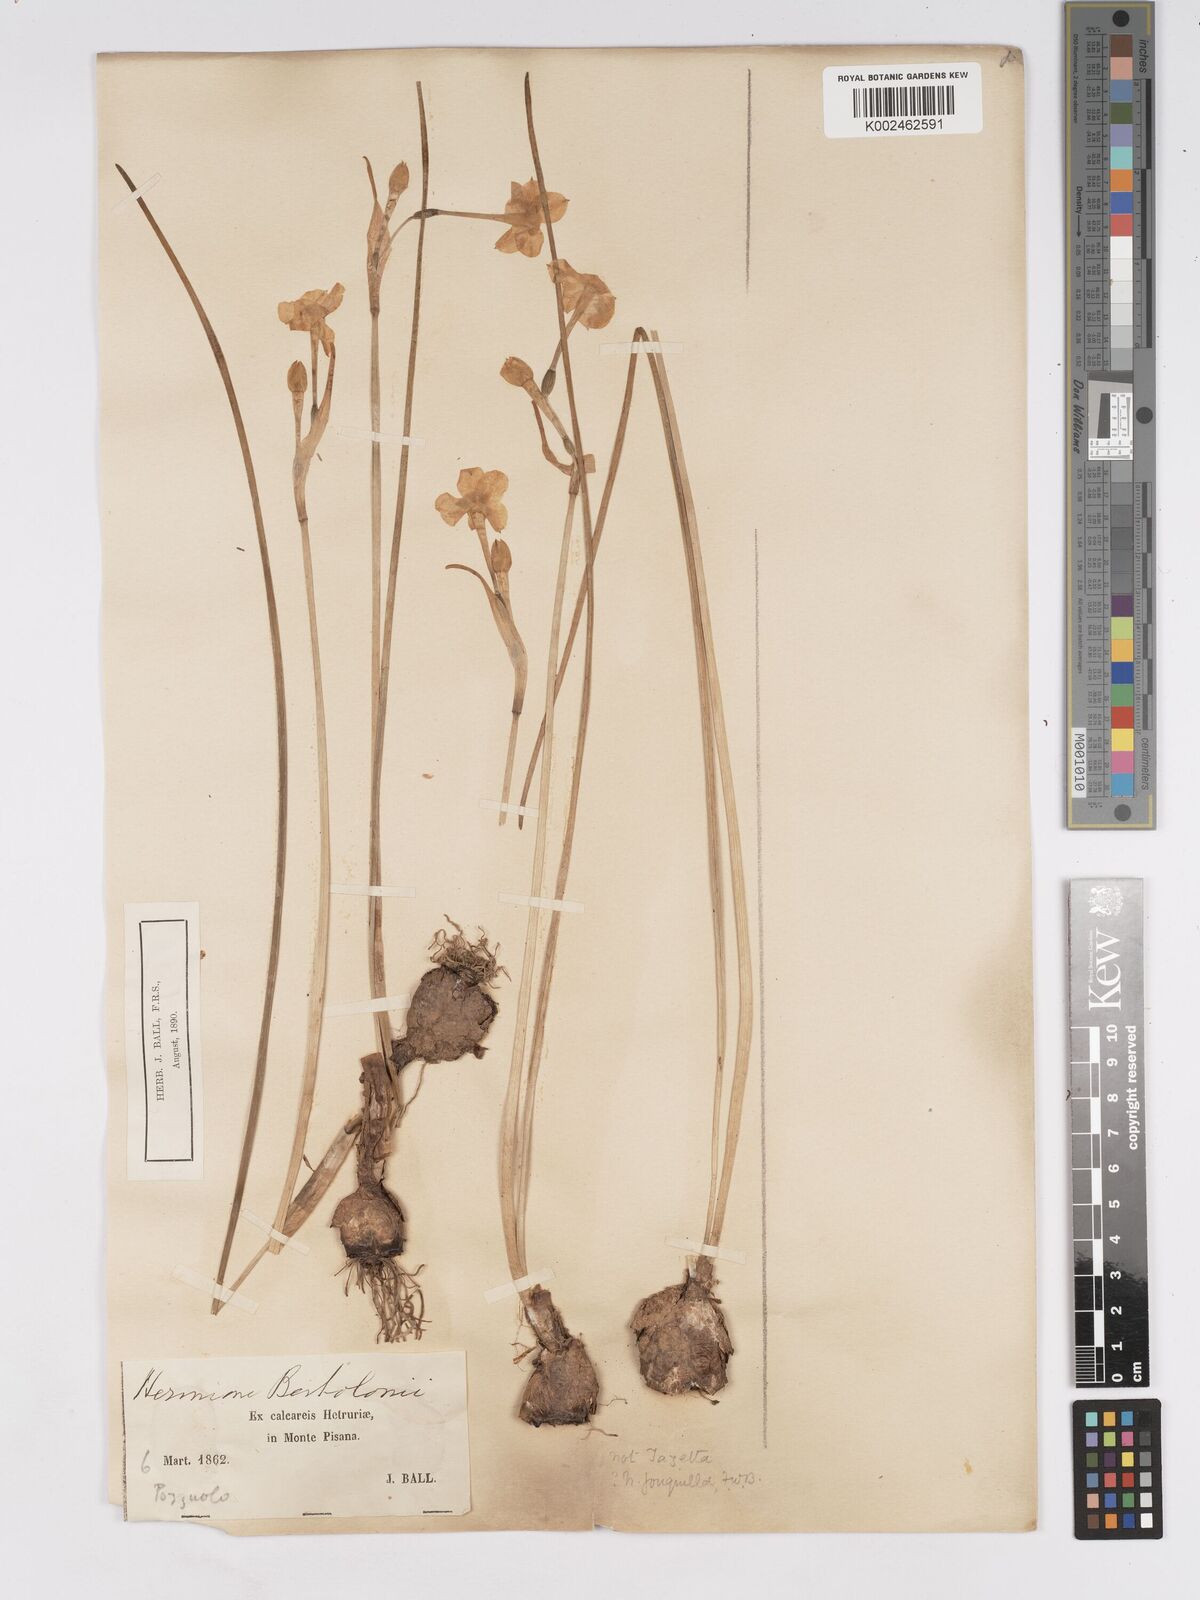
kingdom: Plantae
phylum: Tracheophyta
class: Liliopsida
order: Asparagales
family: Amaryllidaceae
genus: Narcissus
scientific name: Narcissus jonquilla
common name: Jonquil
